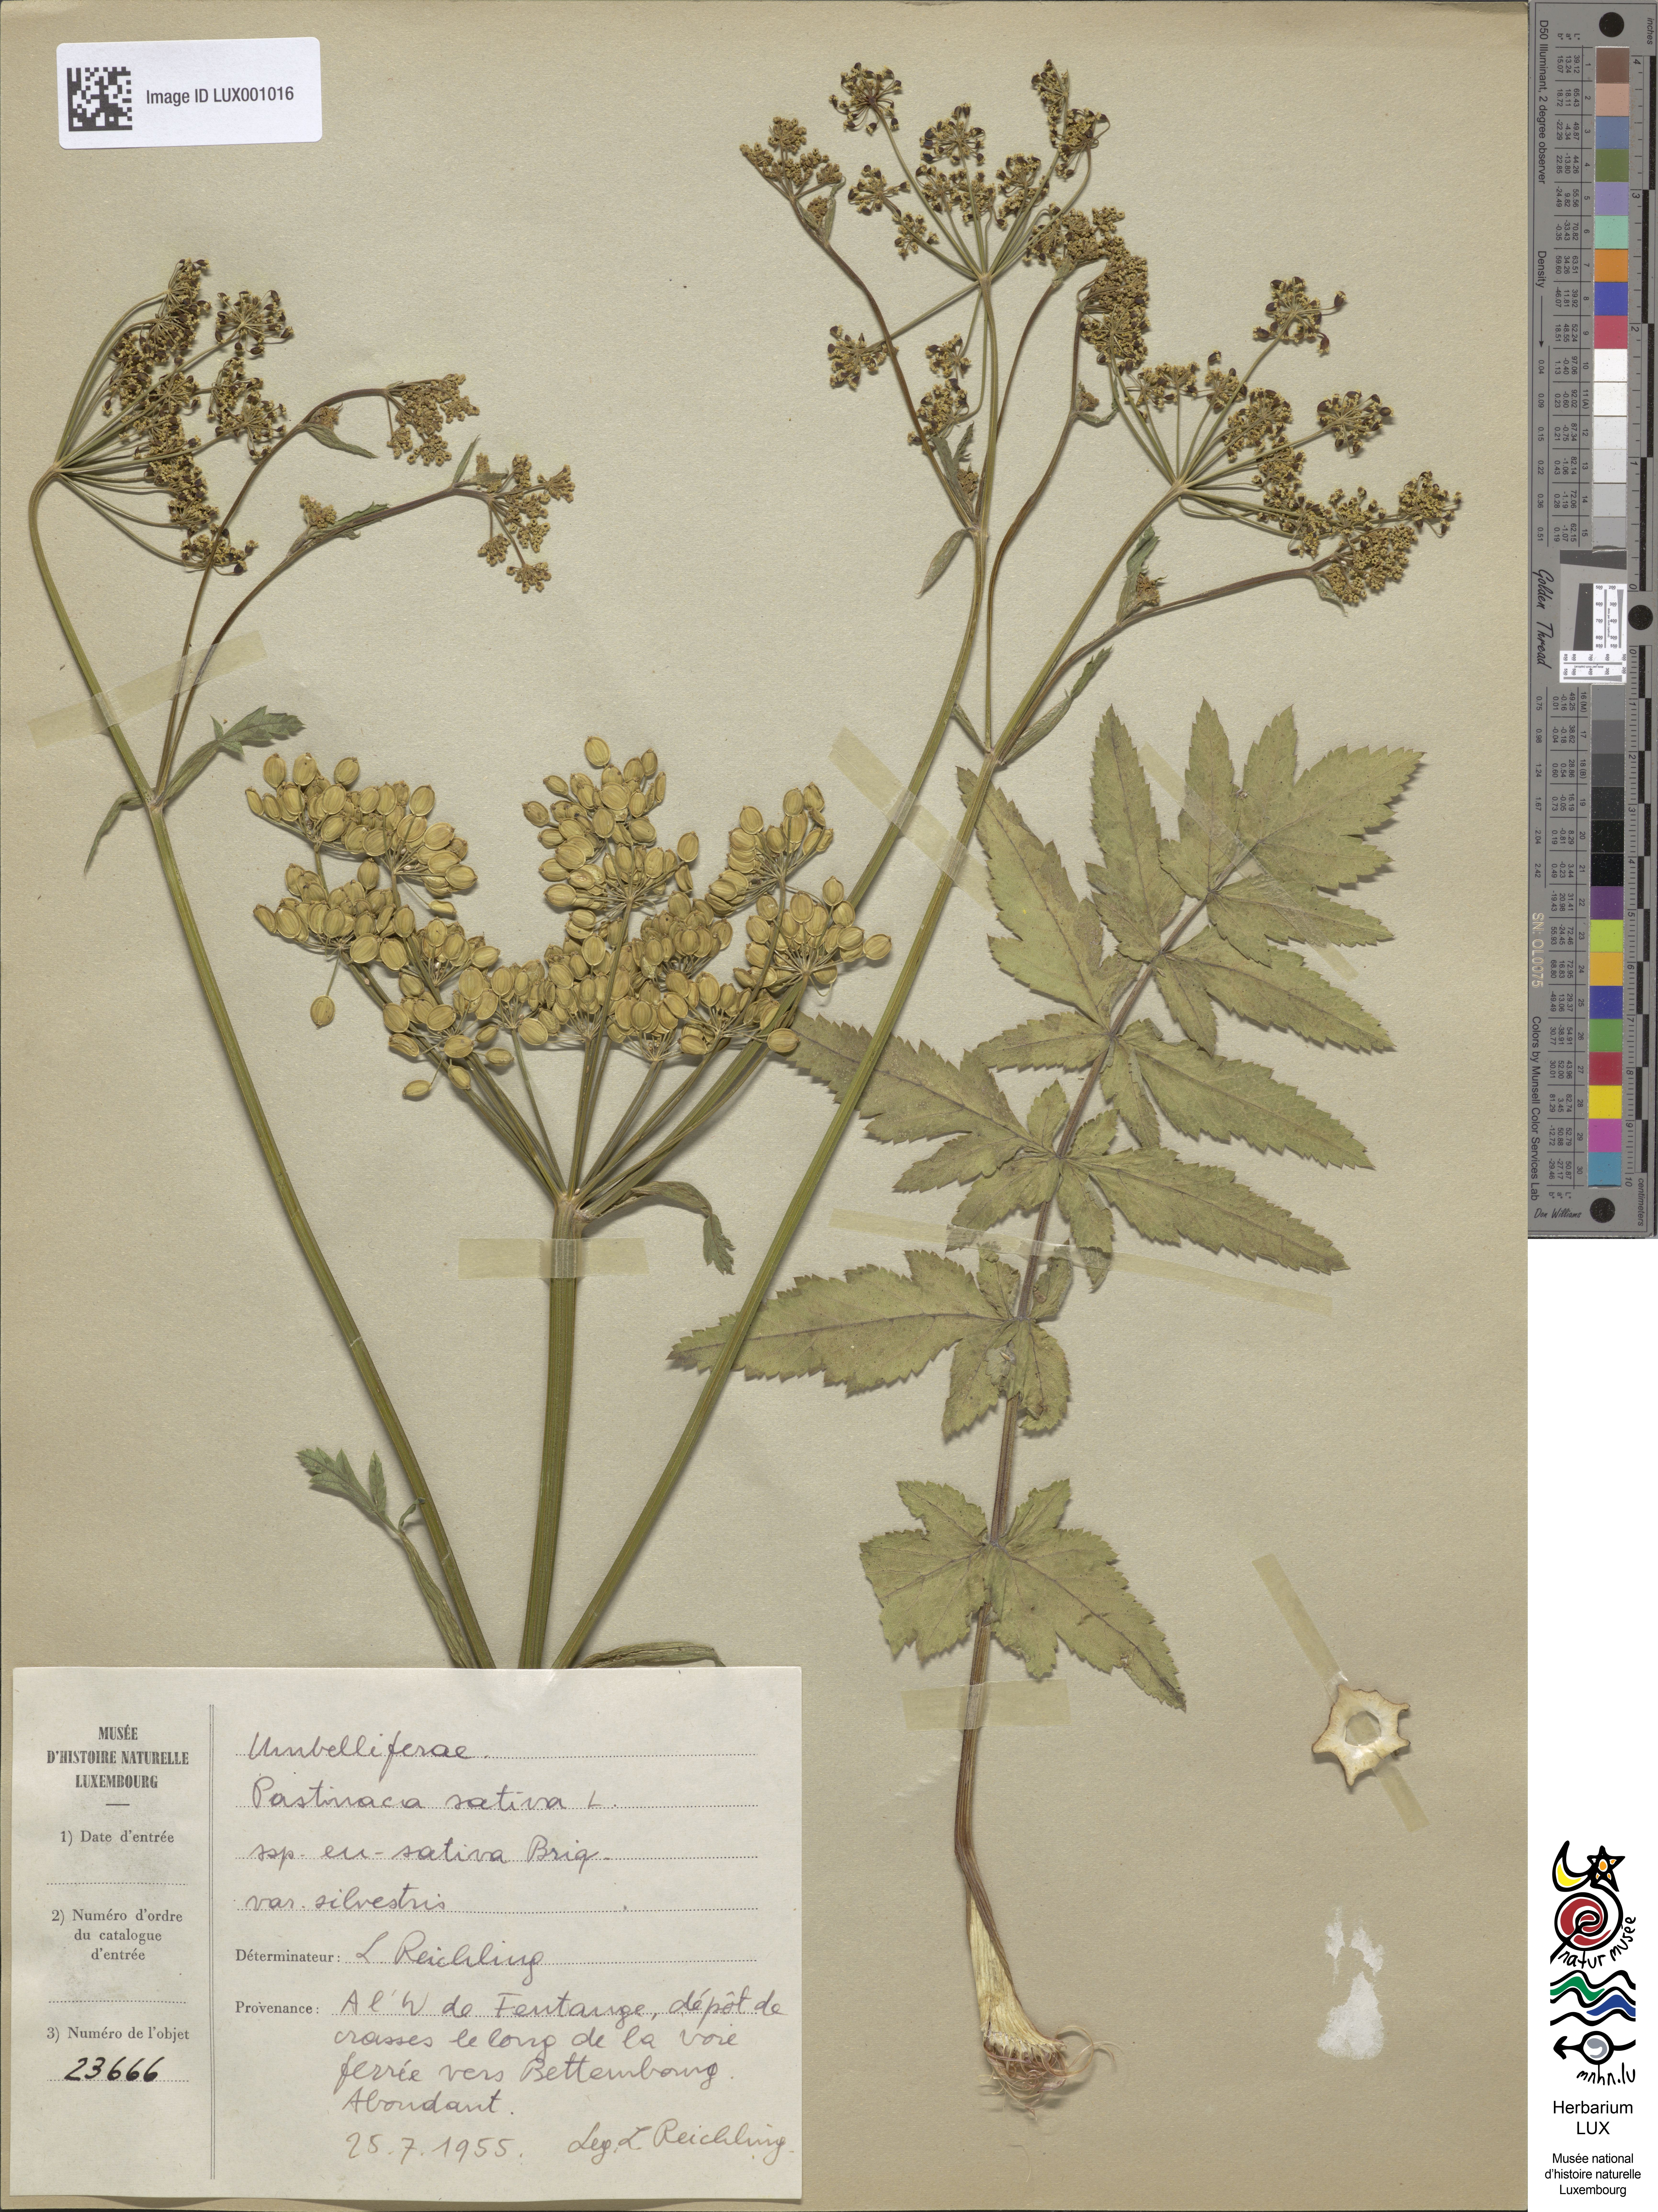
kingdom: Plantae
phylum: Tracheophyta
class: Magnoliopsida
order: Apiales
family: Apiaceae
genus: Pastinaca
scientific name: Pastinaca sativa
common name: Wild parsnip
